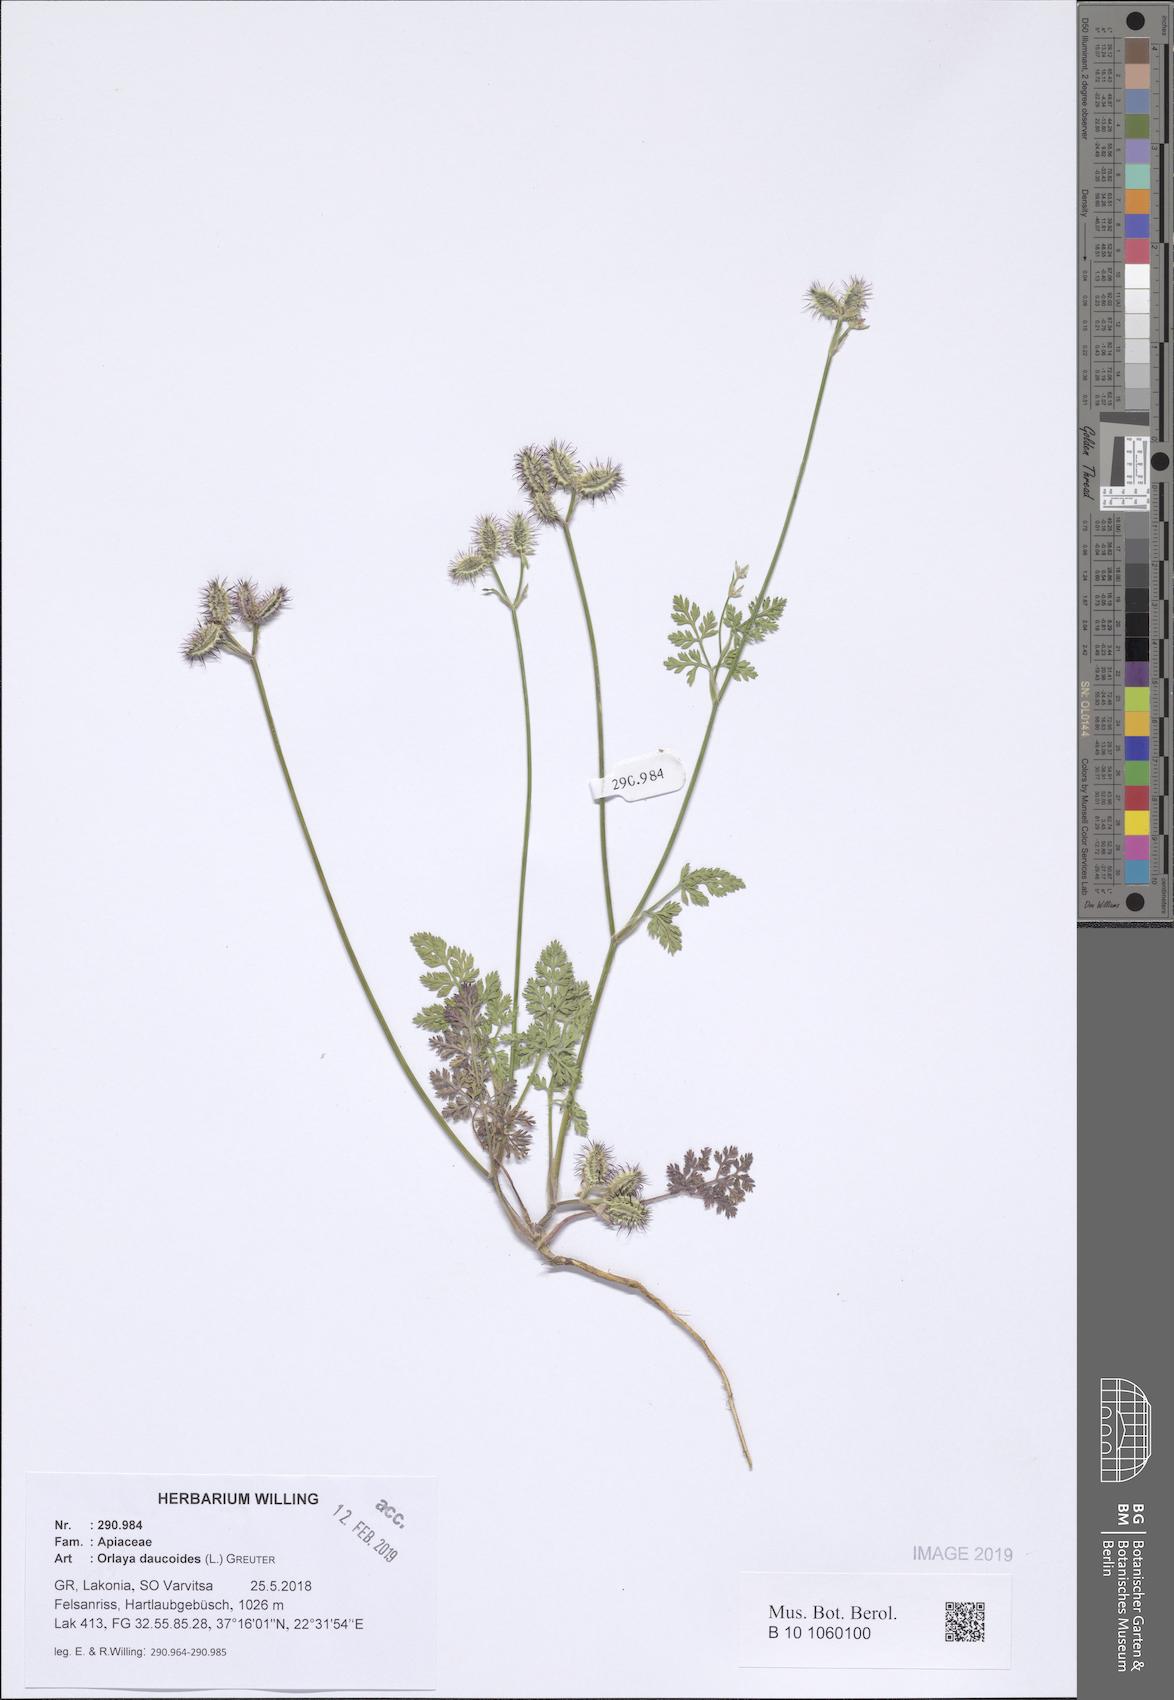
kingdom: Plantae
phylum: Tracheophyta
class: Magnoliopsida
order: Apiales
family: Apiaceae
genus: Orlaya
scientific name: Orlaya daucoides
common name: Flat-fruit orlaya
